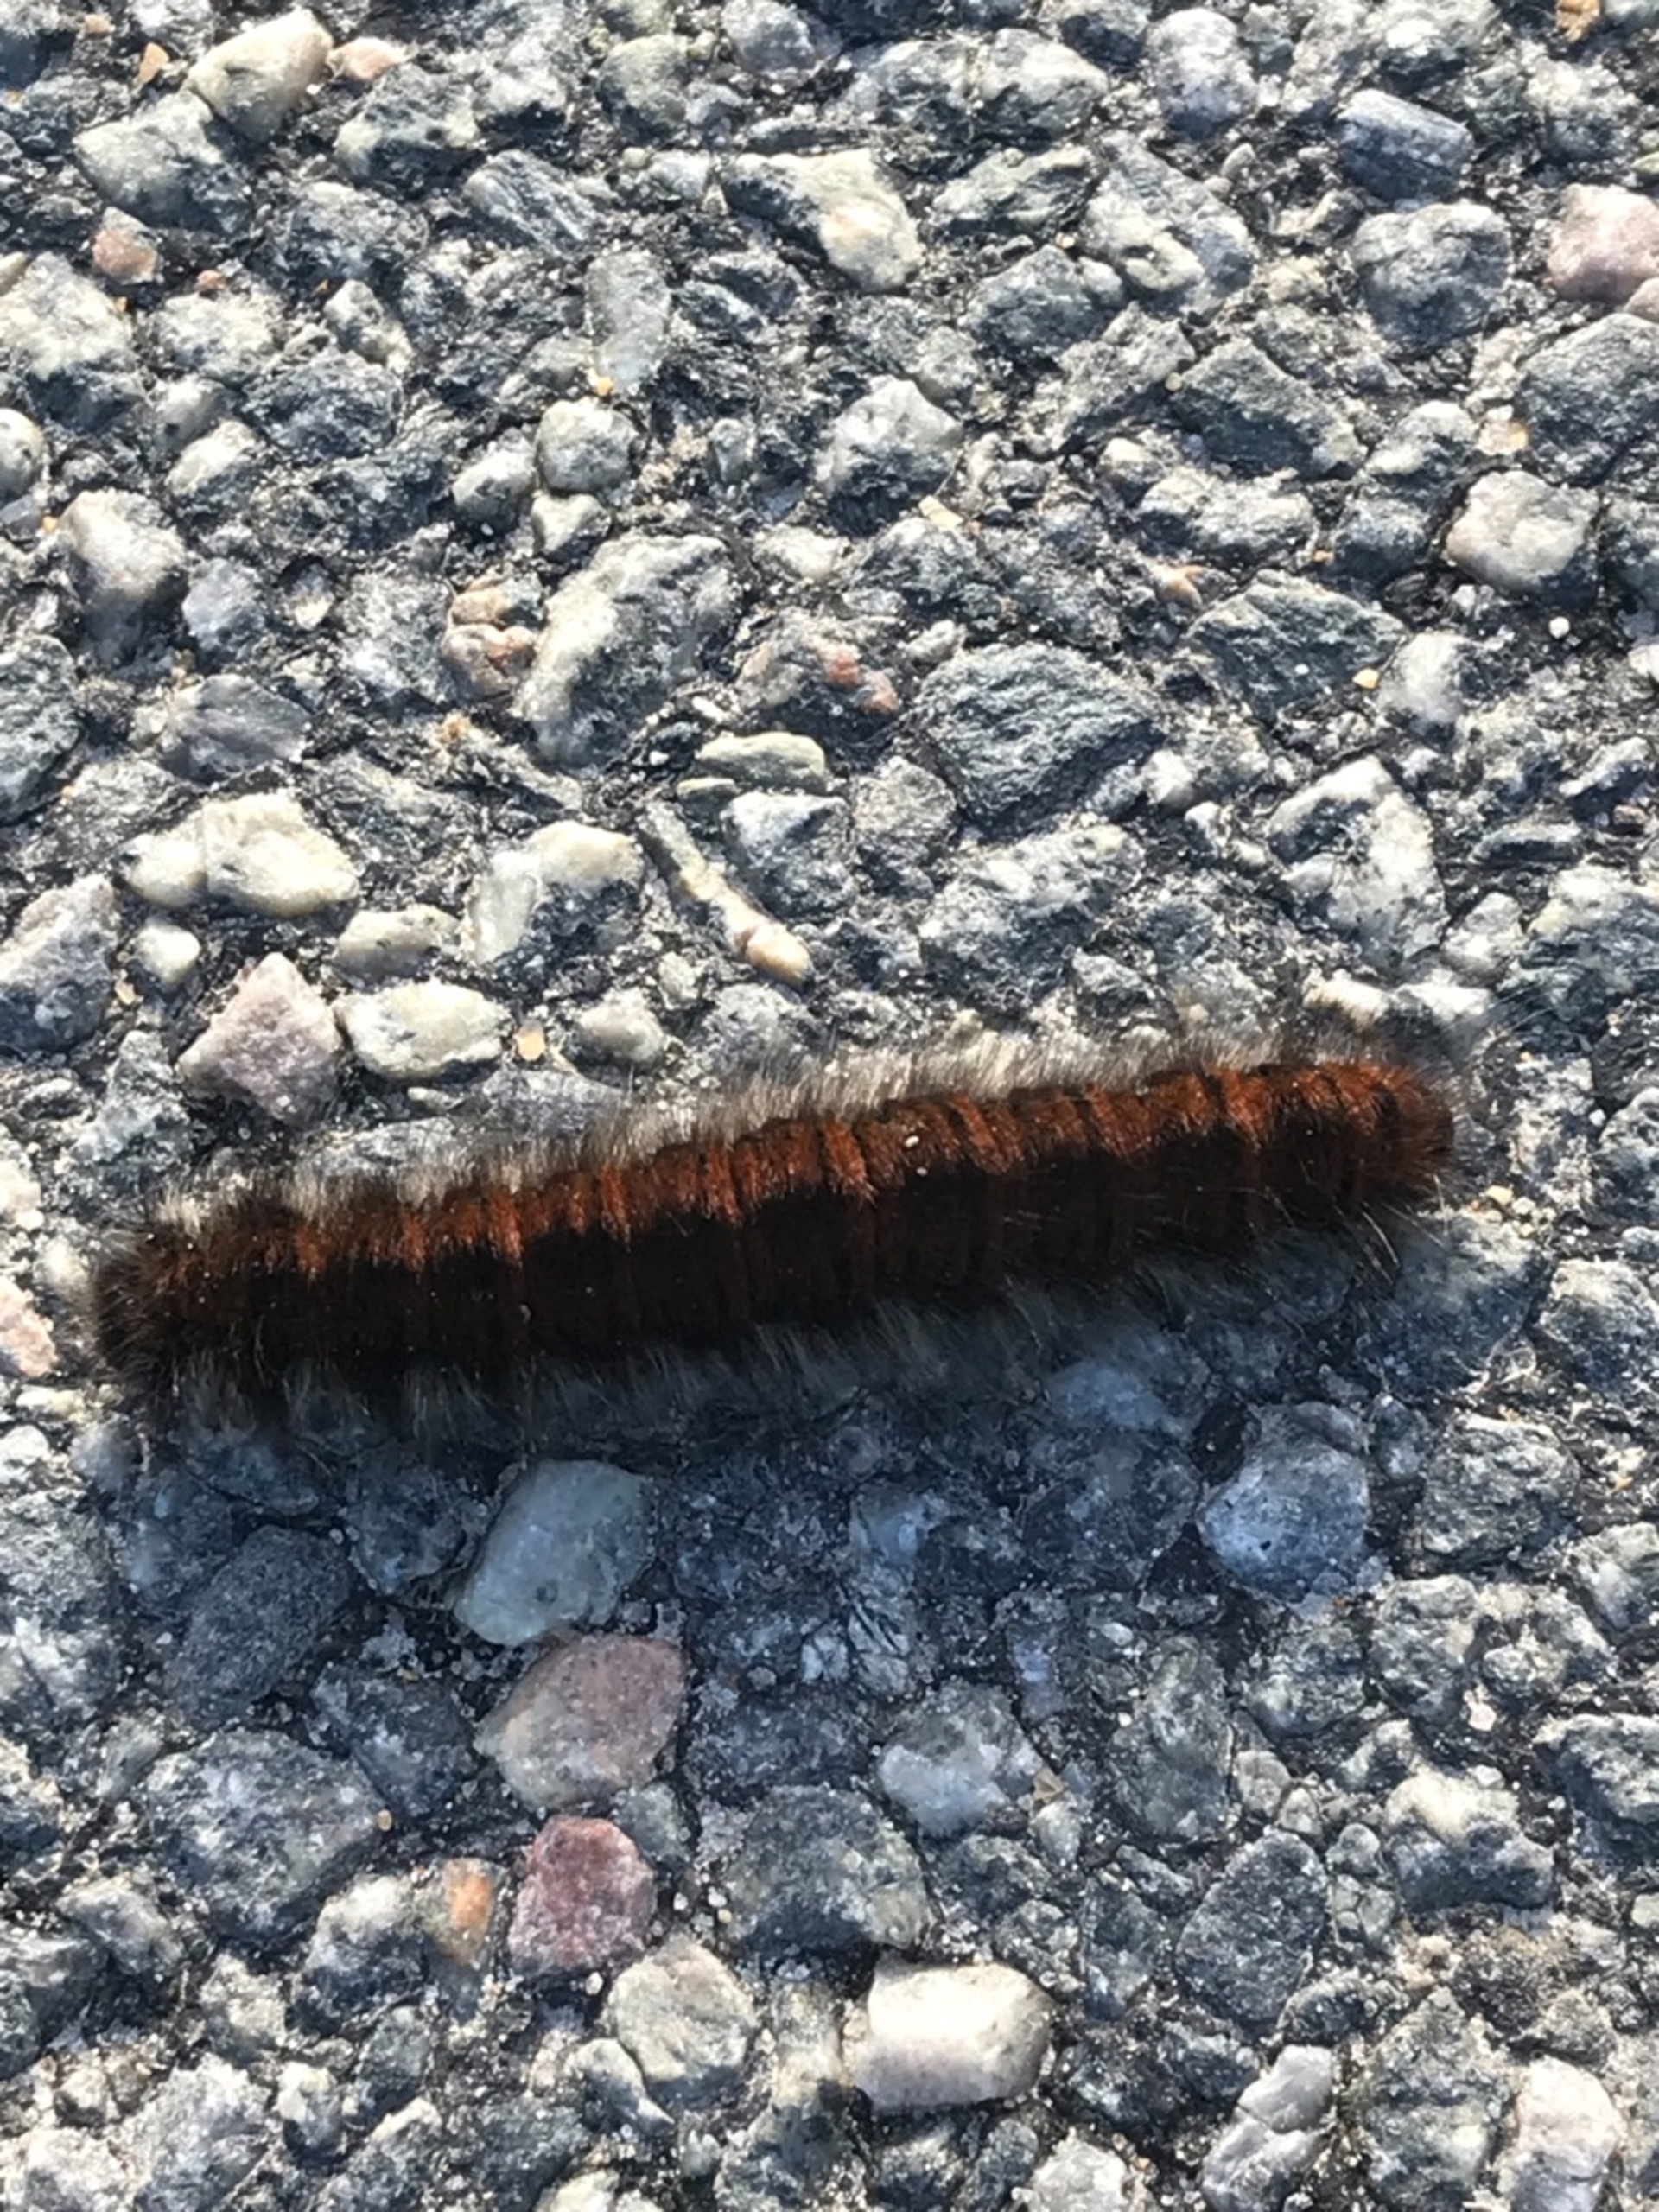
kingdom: Animalia
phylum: Arthropoda
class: Insecta
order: Lepidoptera
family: Lasiocampidae
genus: Macrothylacia
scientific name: Macrothylacia rubi
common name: Brombærspinder
